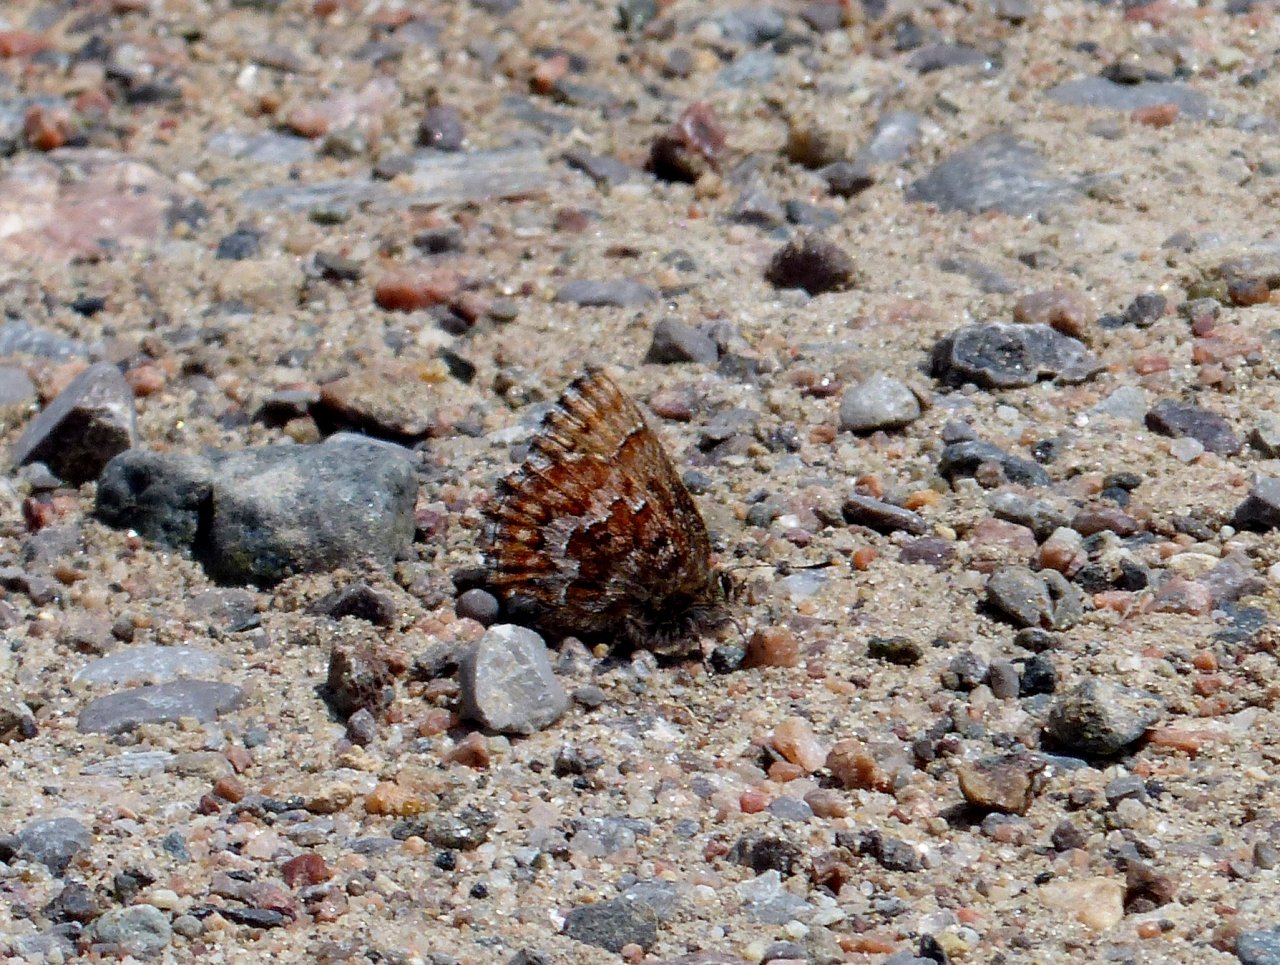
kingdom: Animalia
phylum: Arthropoda
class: Insecta
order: Lepidoptera
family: Lycaenidae
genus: Incisalia
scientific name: Incisalia niphon
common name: Eastern Pine Elfin
